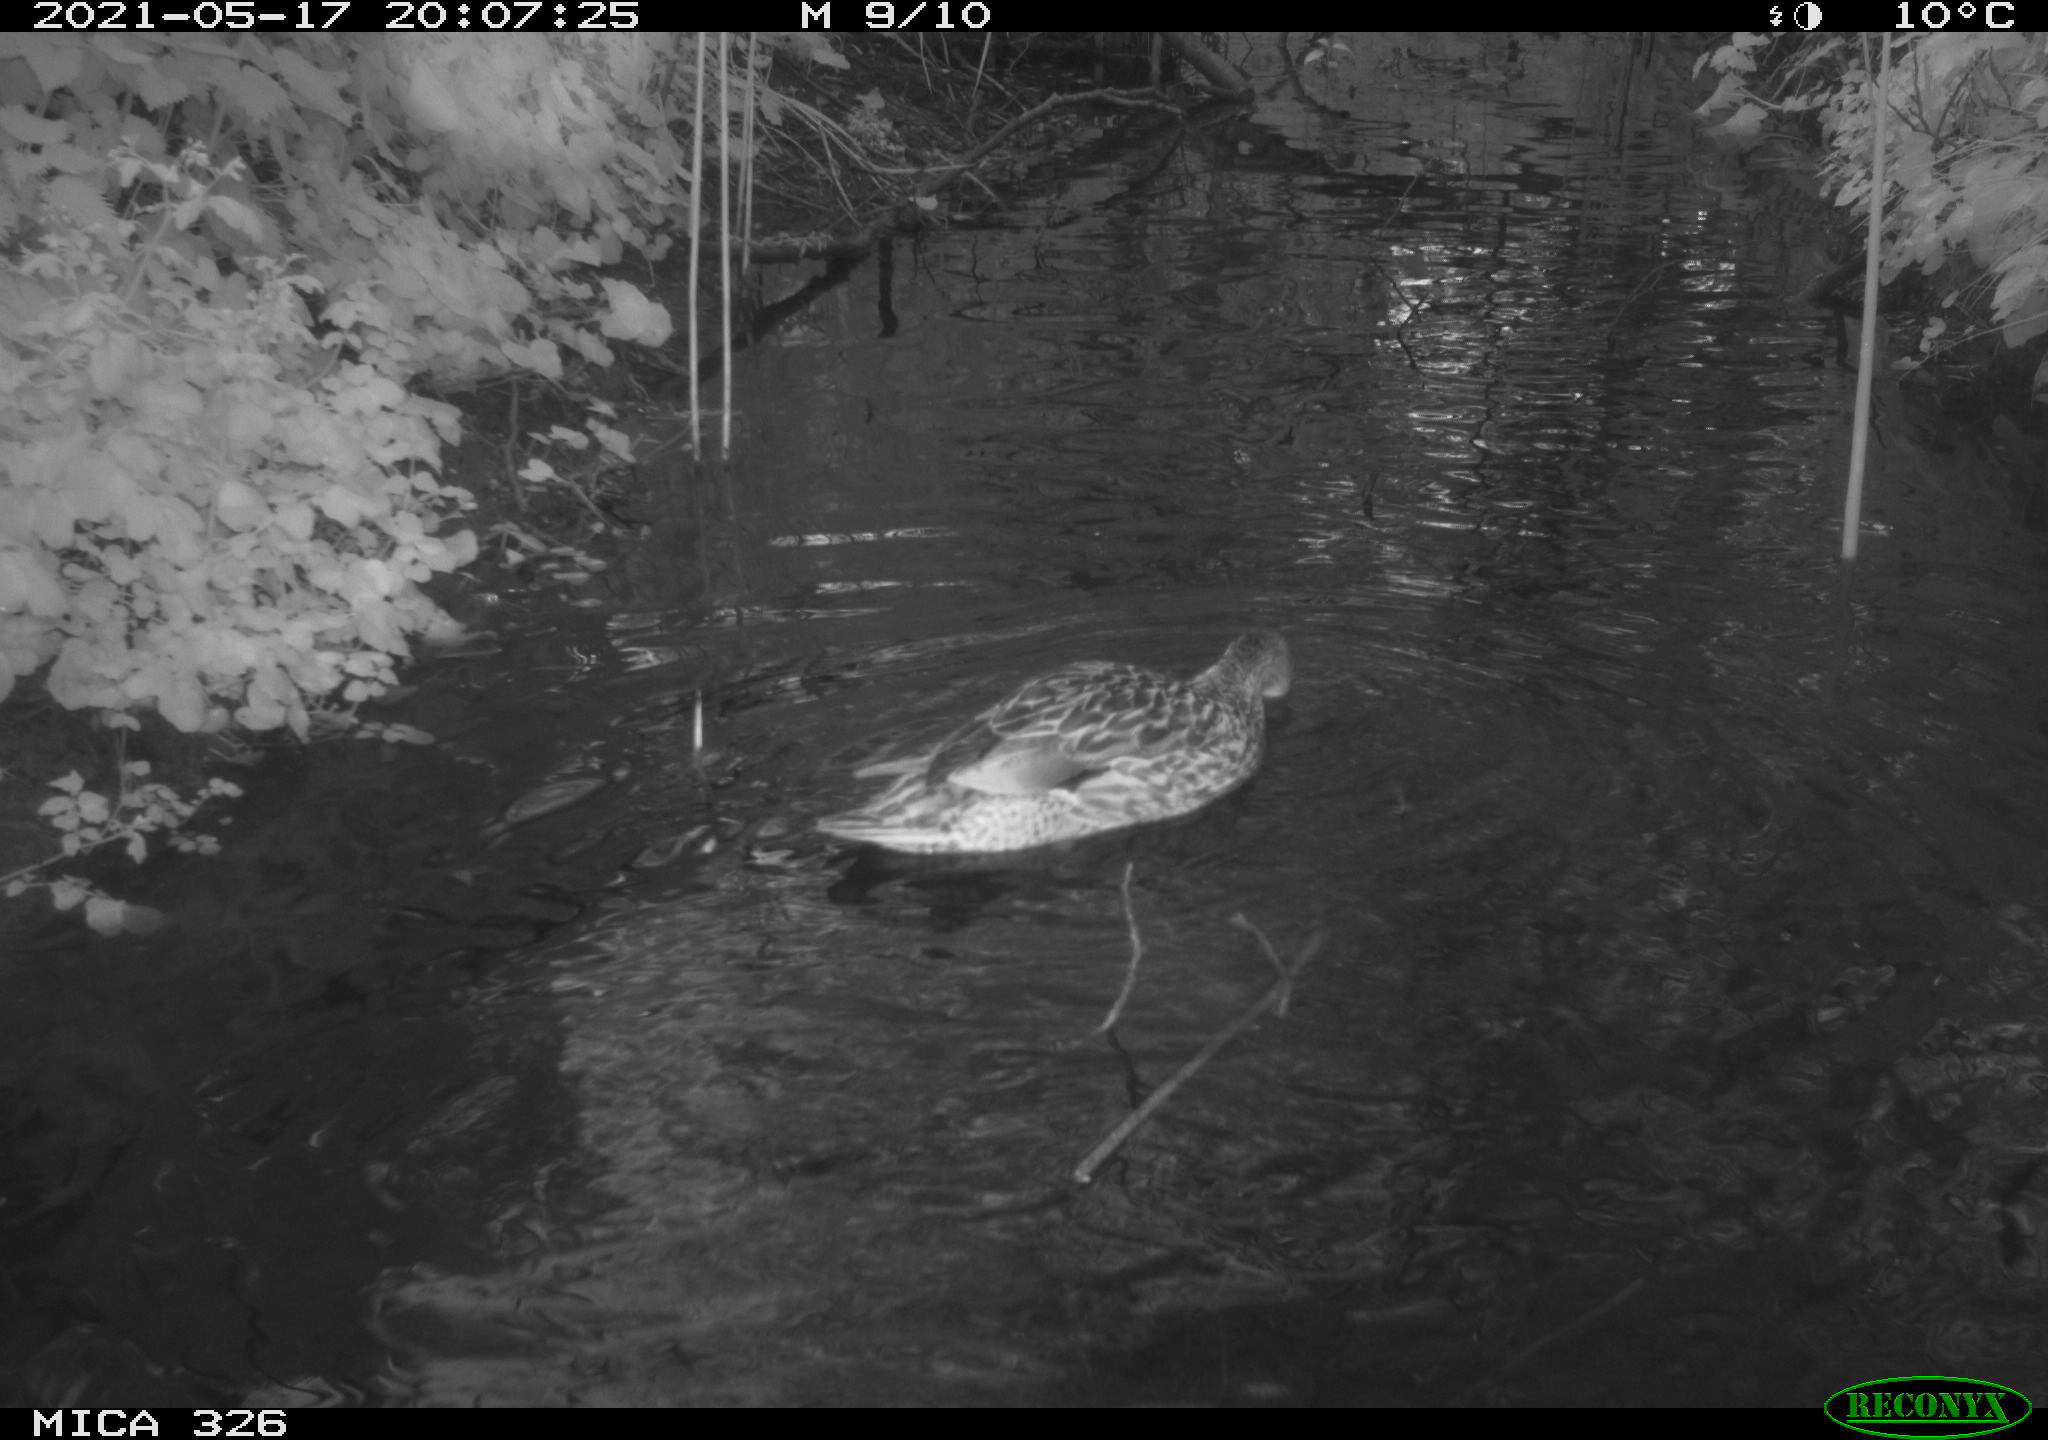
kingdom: Animalia
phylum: Chordata
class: Aves
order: Anseriformes
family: Anatidae
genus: Anas
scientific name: Anas platyrhynchos
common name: Mallard
